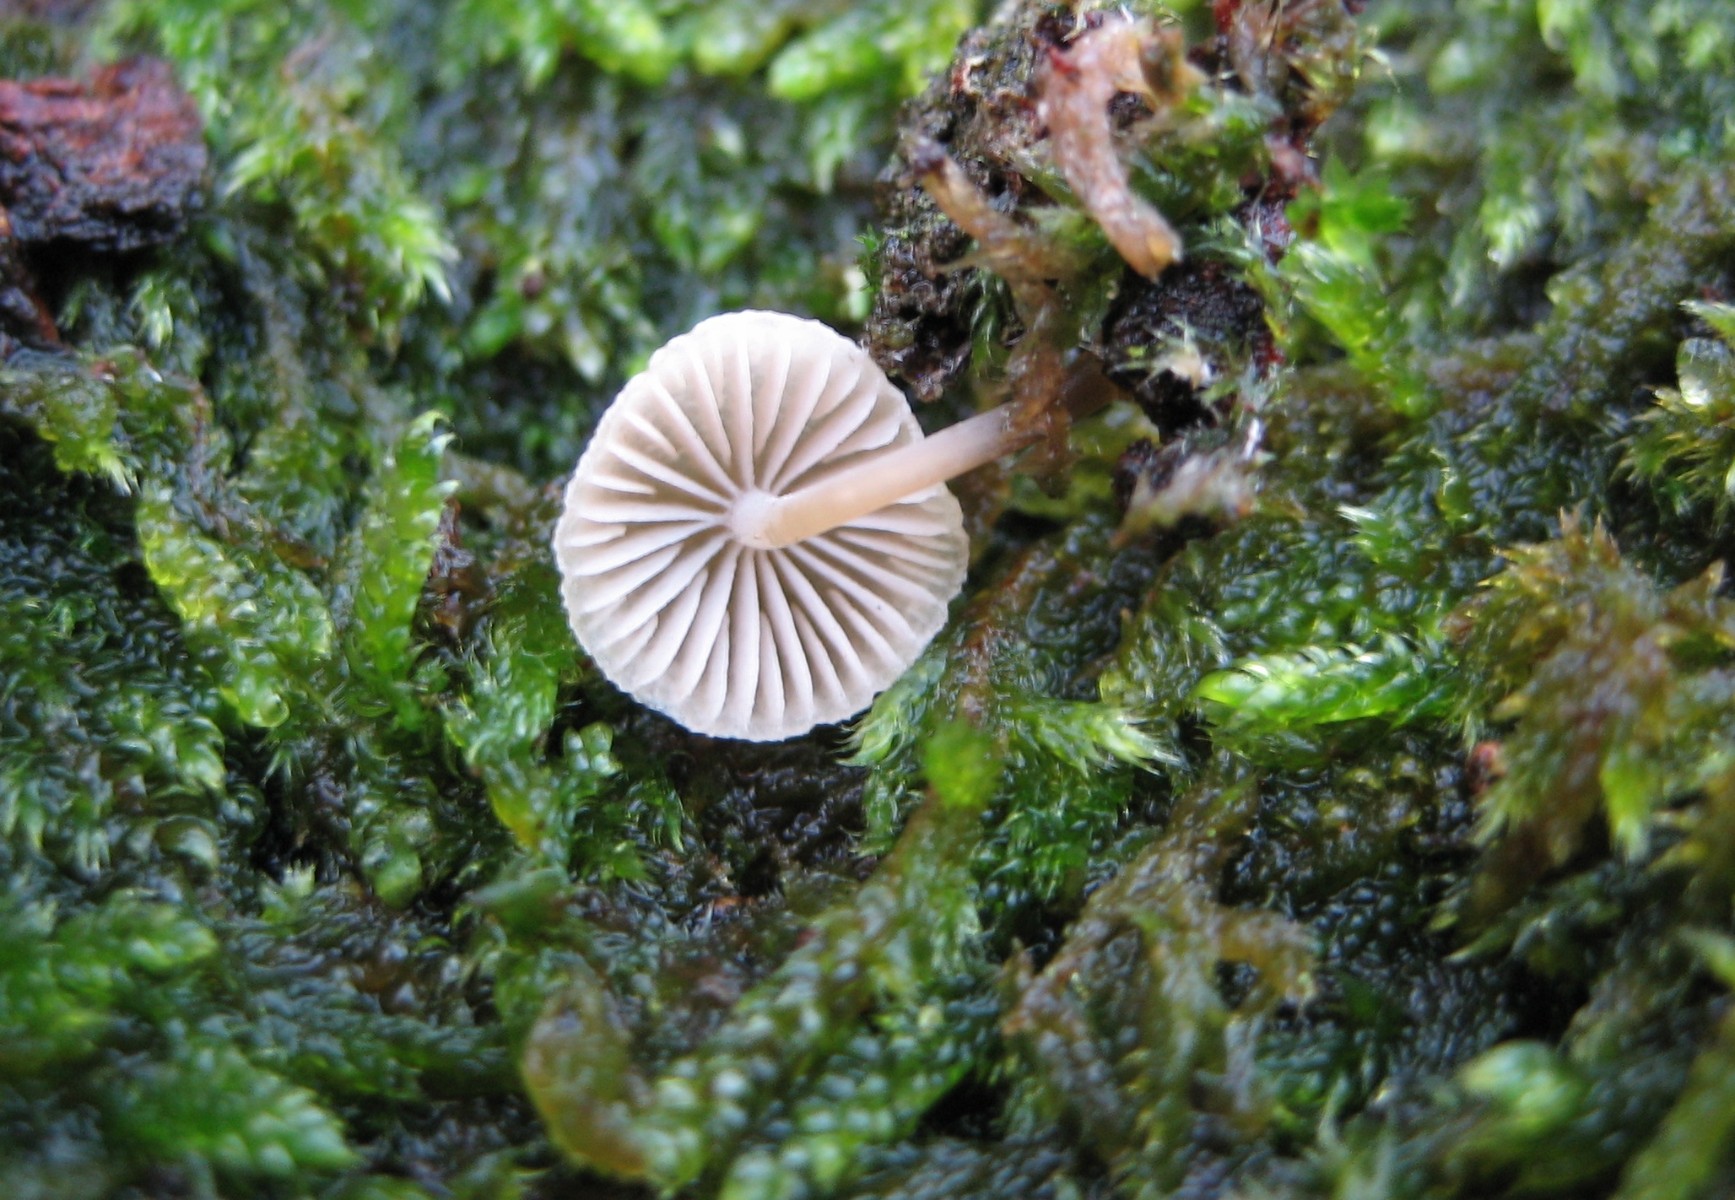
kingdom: Fungi
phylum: Basidiomycota
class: Agaricomycetes
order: Agaricales
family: Mycenaceae
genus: Mycena
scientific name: Mycena
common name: huesvamp
